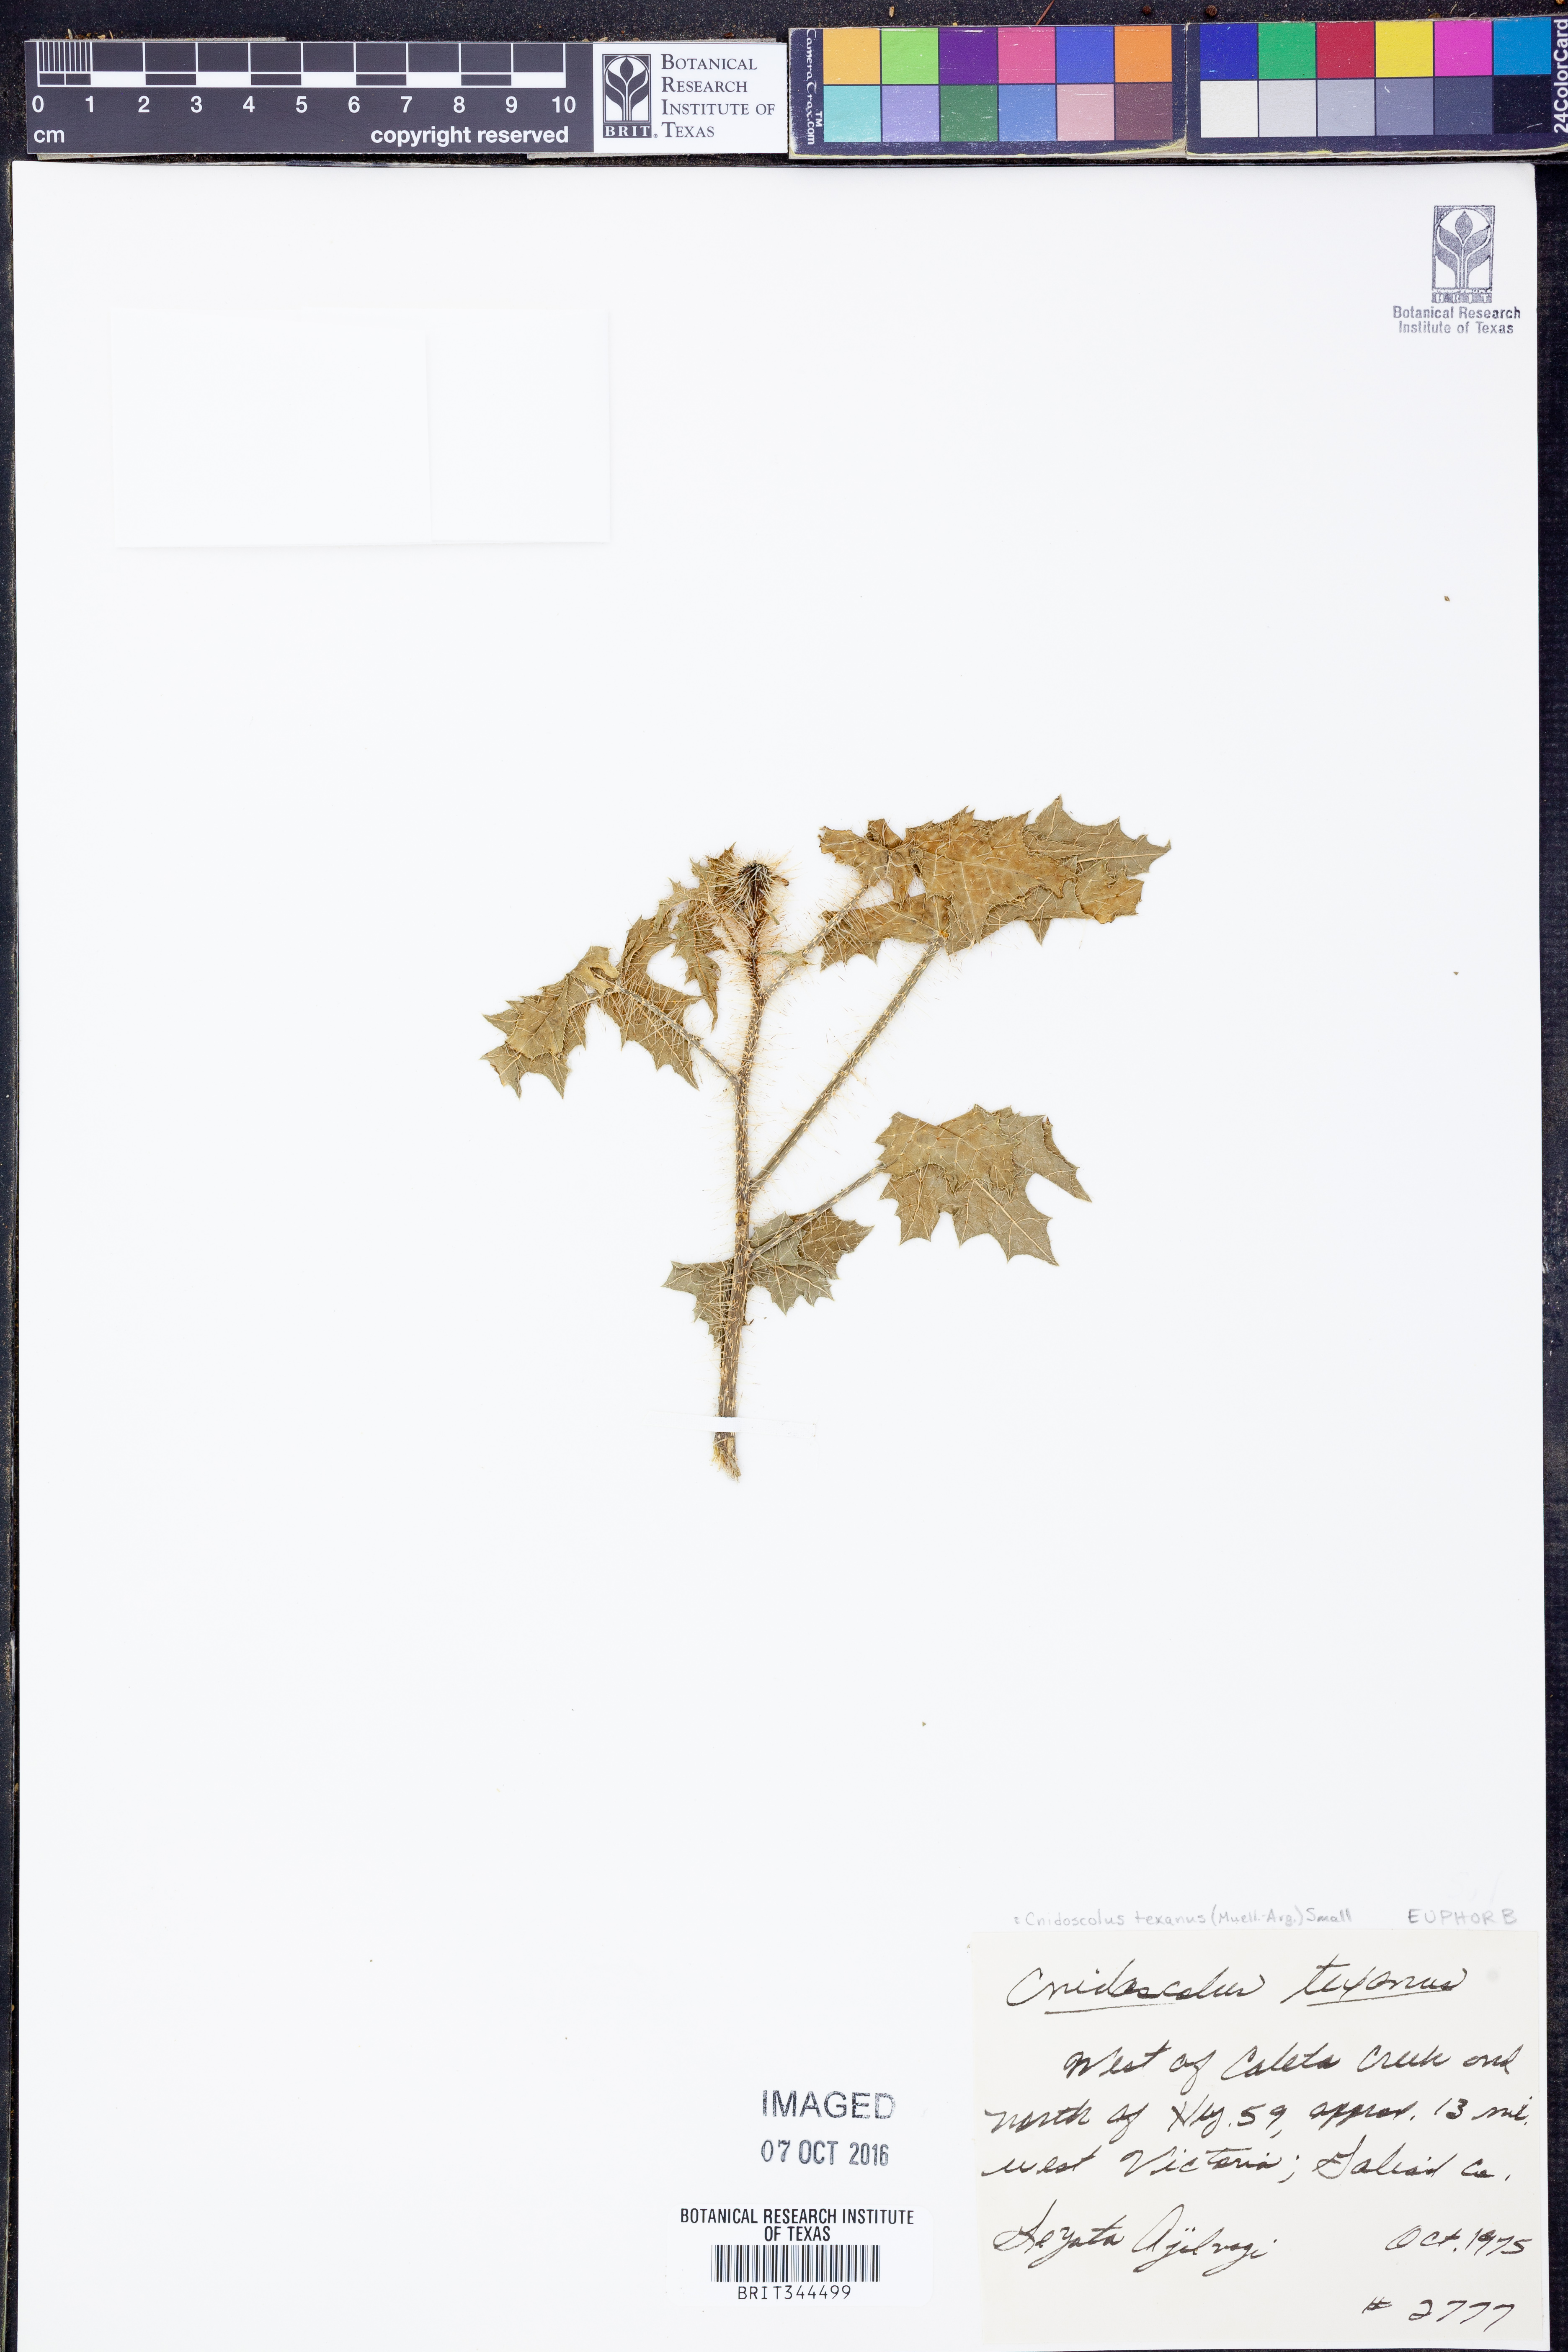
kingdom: Plantae
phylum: Tracheophyta
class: Magnoliopsida
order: Malpighiales
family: Euphorbiaceae
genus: Cnidoscolus
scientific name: Cnidoscolus texanus
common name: Texas bull-nettle
